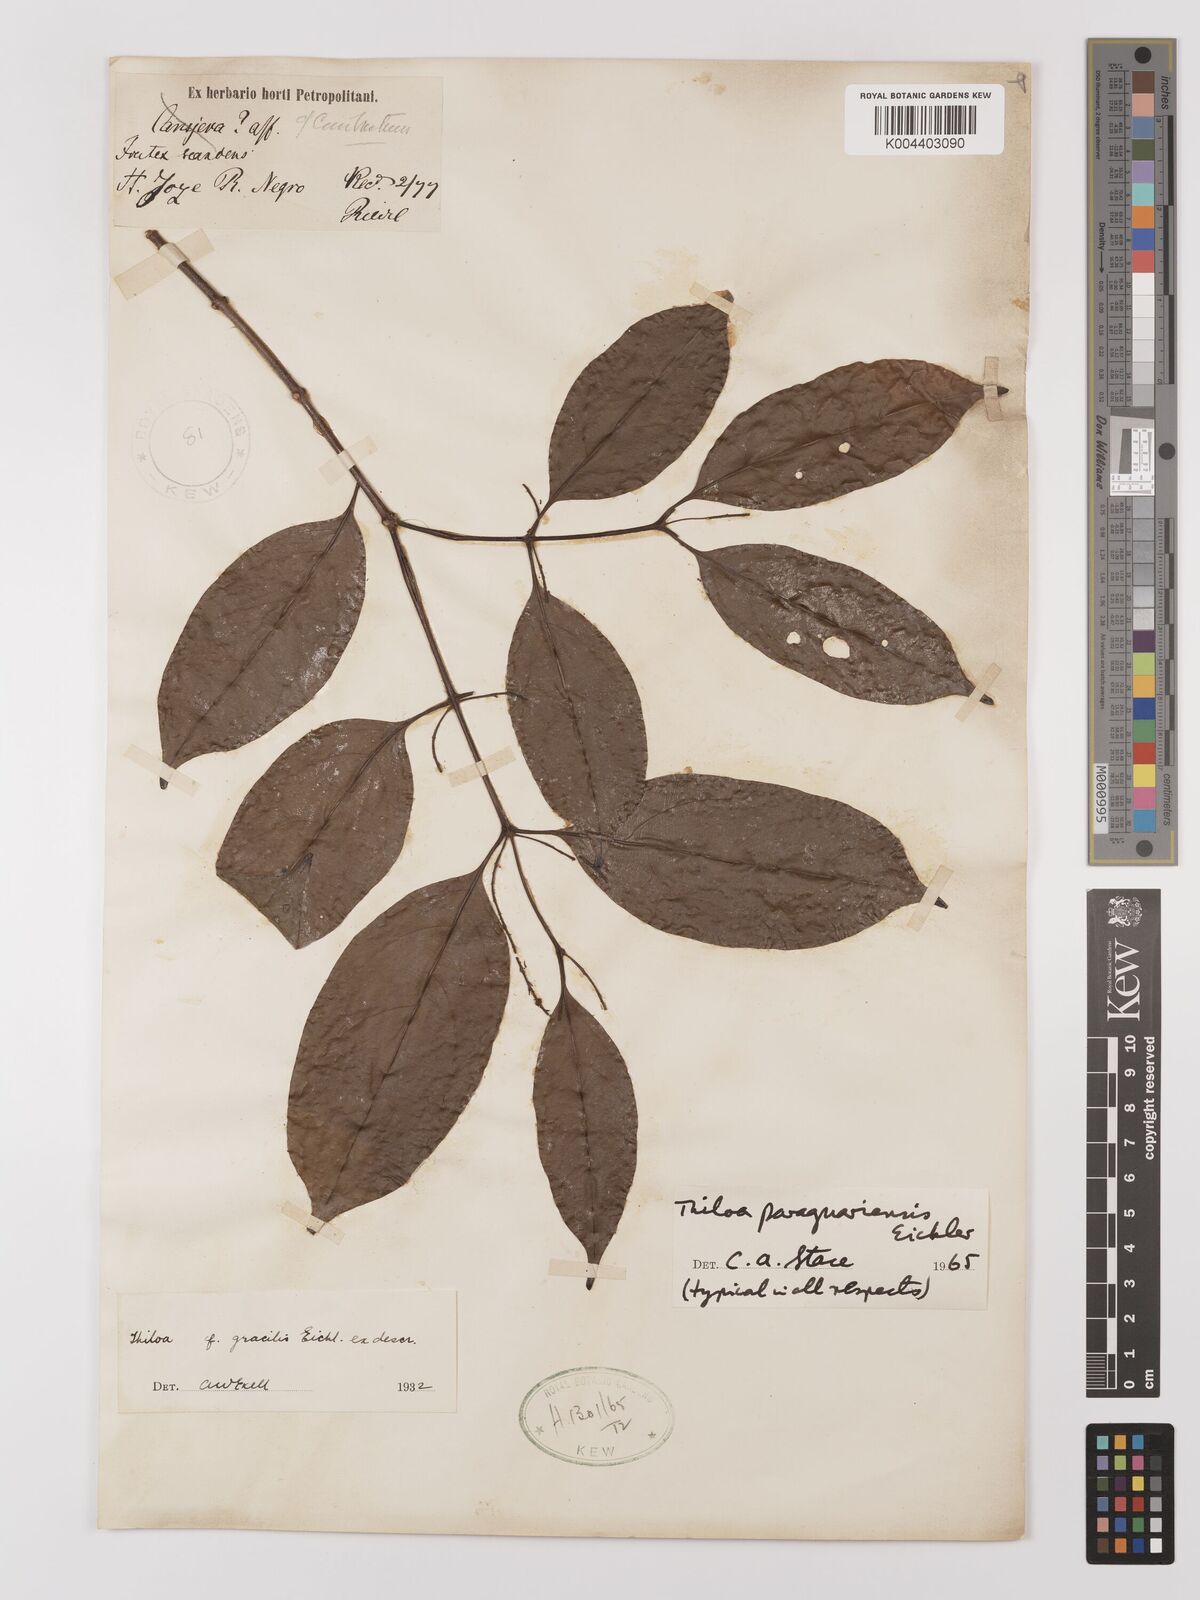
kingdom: Plantae
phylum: Tracheophyta
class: Magnoliopsida
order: Myrtales
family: Combretaceae
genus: Combretum
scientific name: Combretum paraguariense
